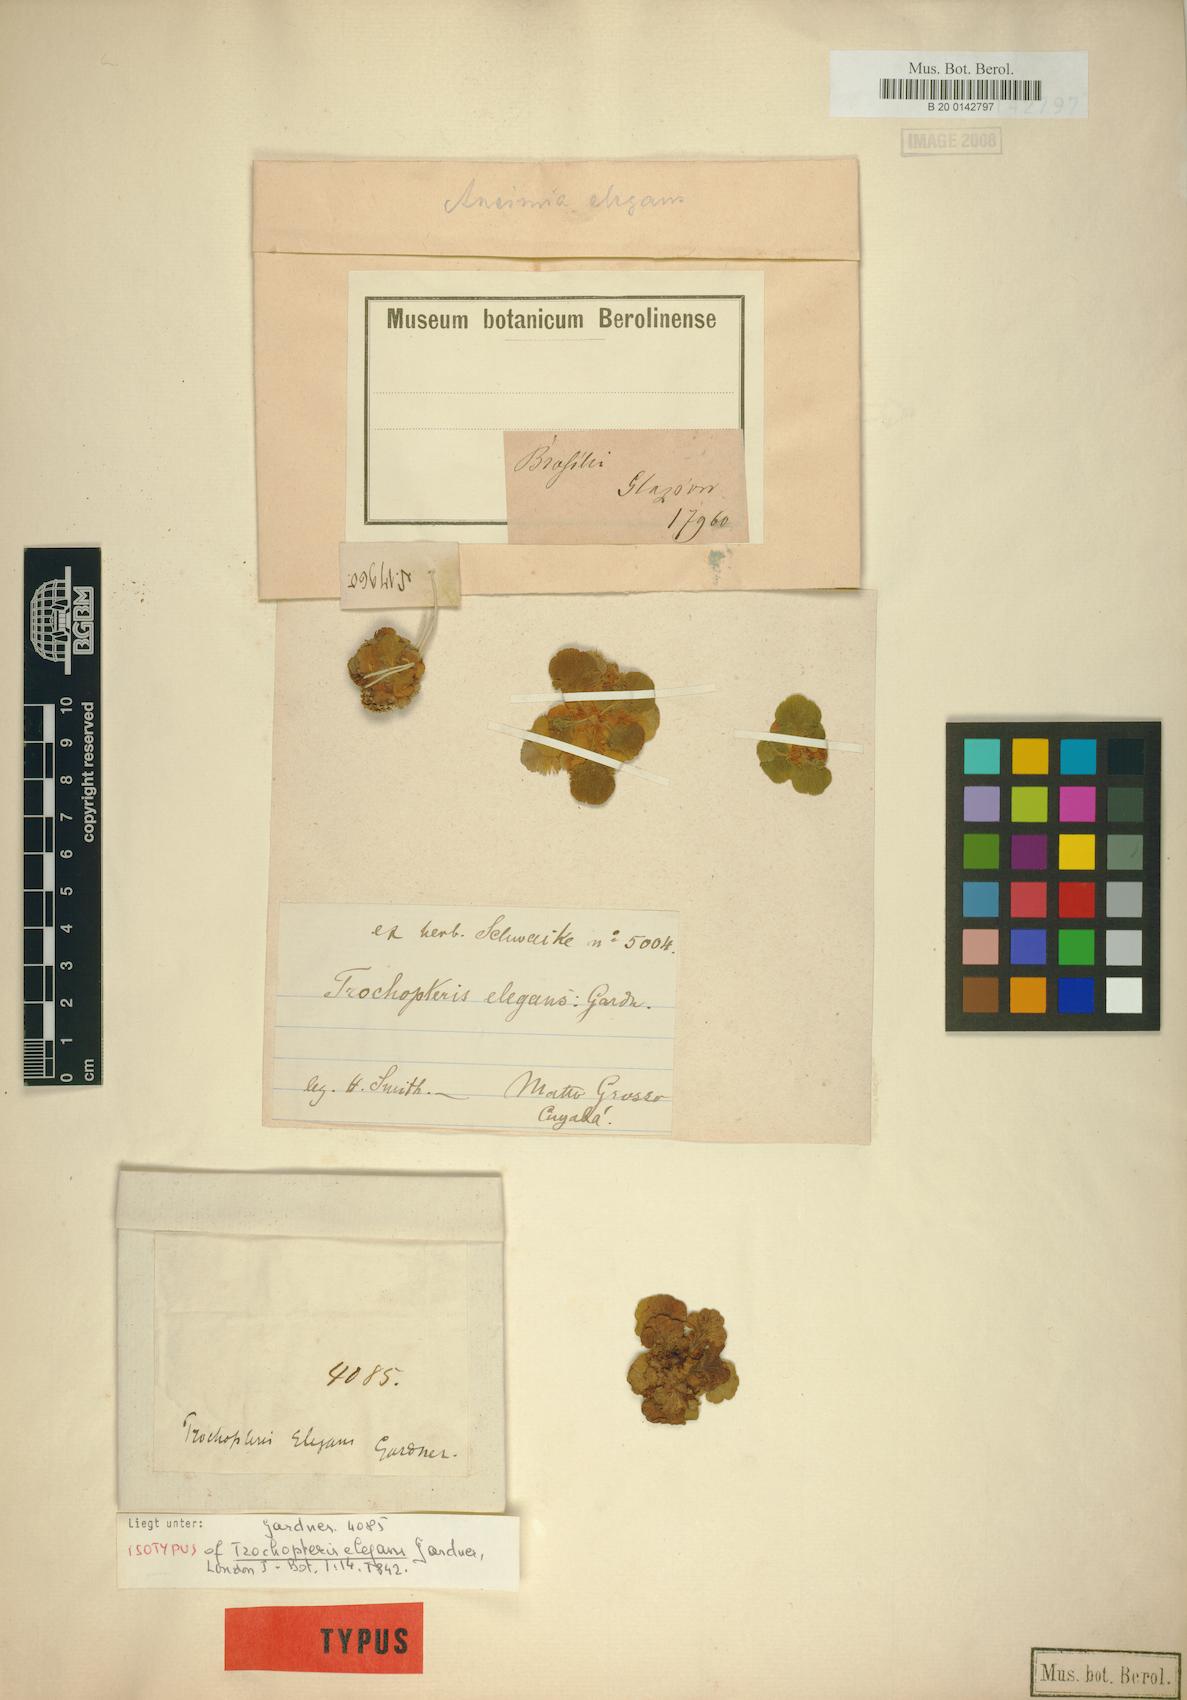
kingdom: Plantae
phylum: Tracheophyta
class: Polypodiopsida
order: Schizaeales
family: Anemiaceae
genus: Anemia
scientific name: Anemia elegans
